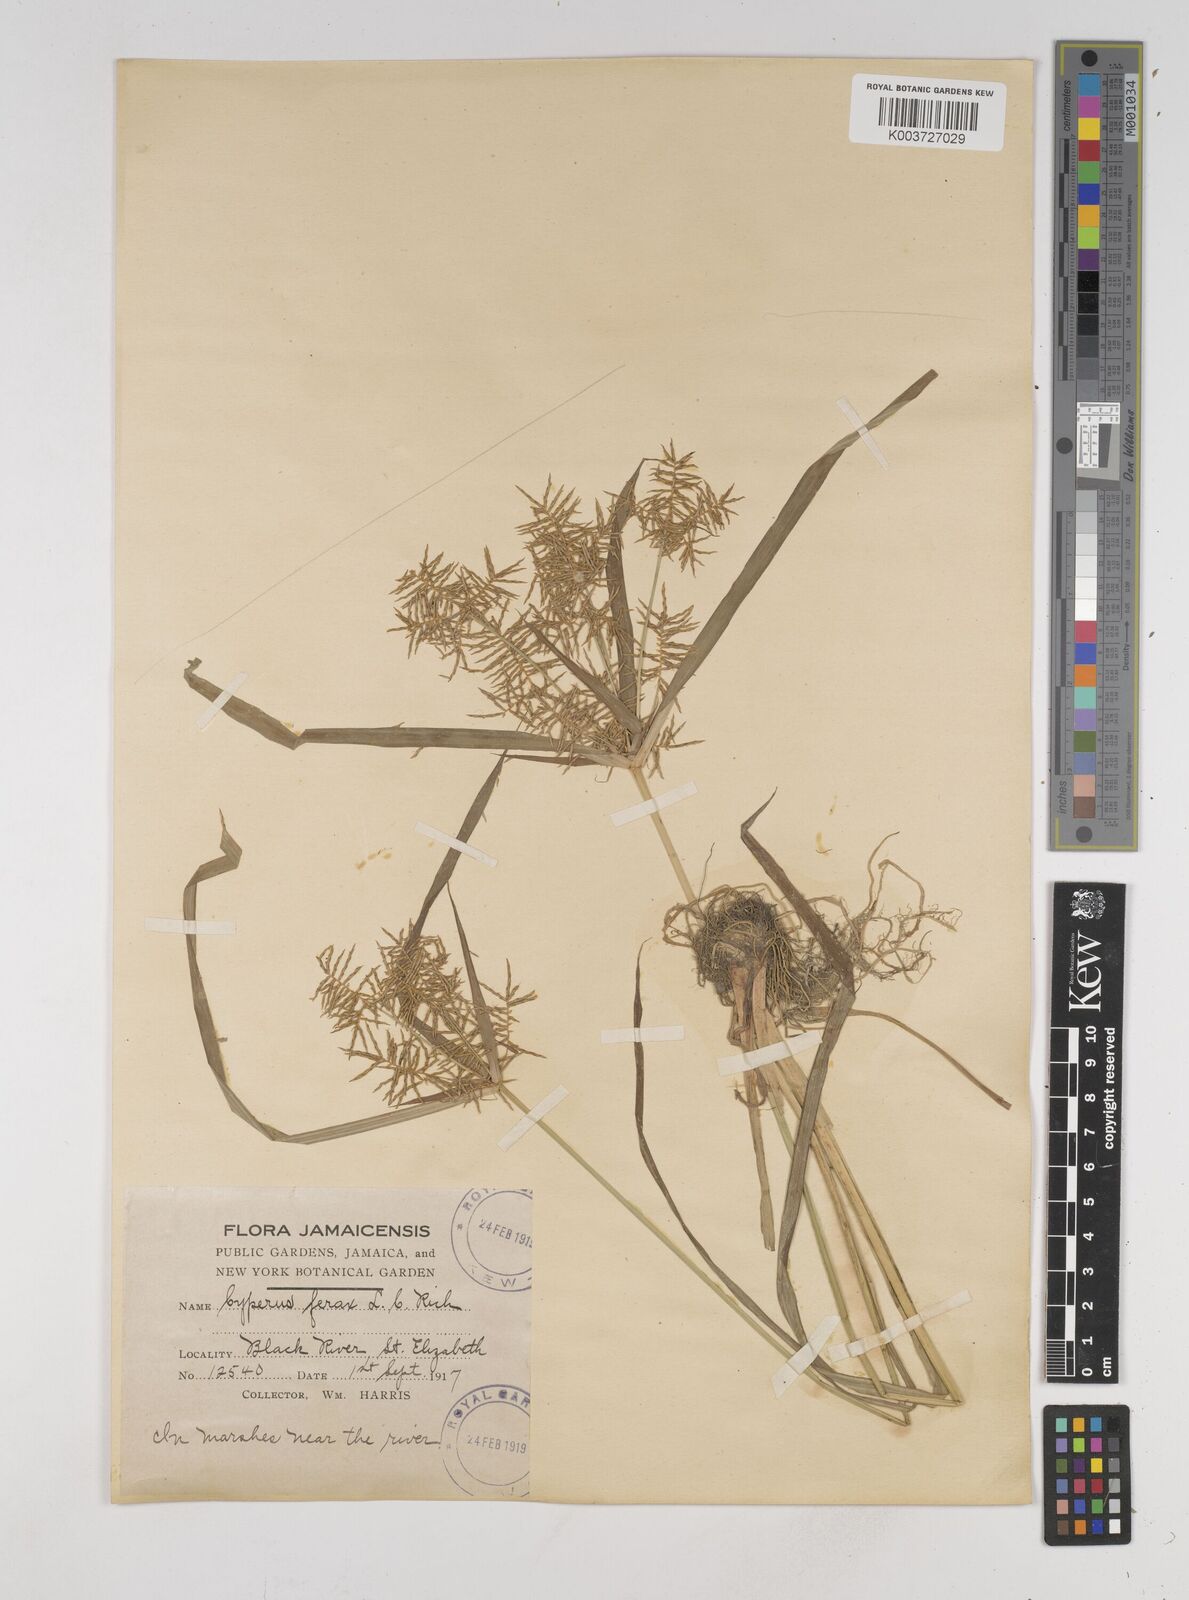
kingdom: Plantae
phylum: Tracheophyta
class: Liliopsida
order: Poales
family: Cyperaceae
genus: Cyperus
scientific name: Cyperus odoratus
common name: Fragrant flatsedge
